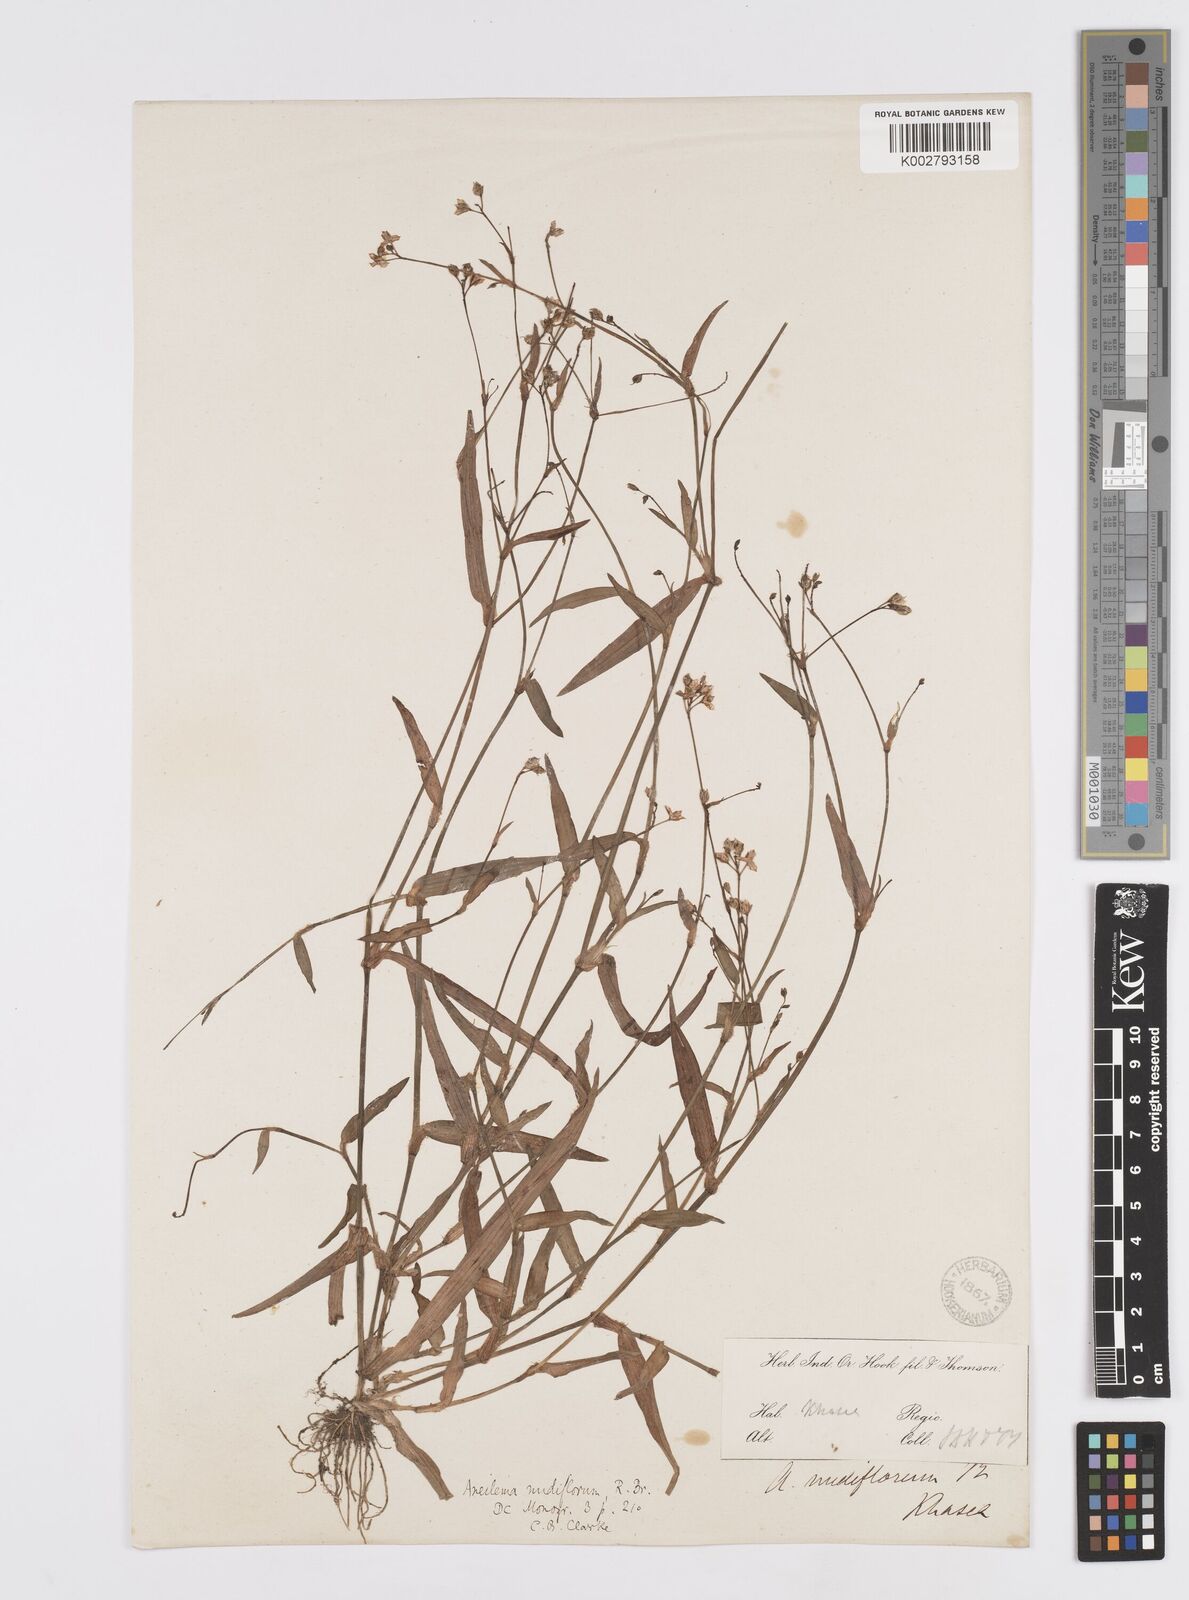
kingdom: Plantae
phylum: Tracheophyta
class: Liliopsida
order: Commelinales
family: Commelinaceae
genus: Murdannia
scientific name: Murdannia
